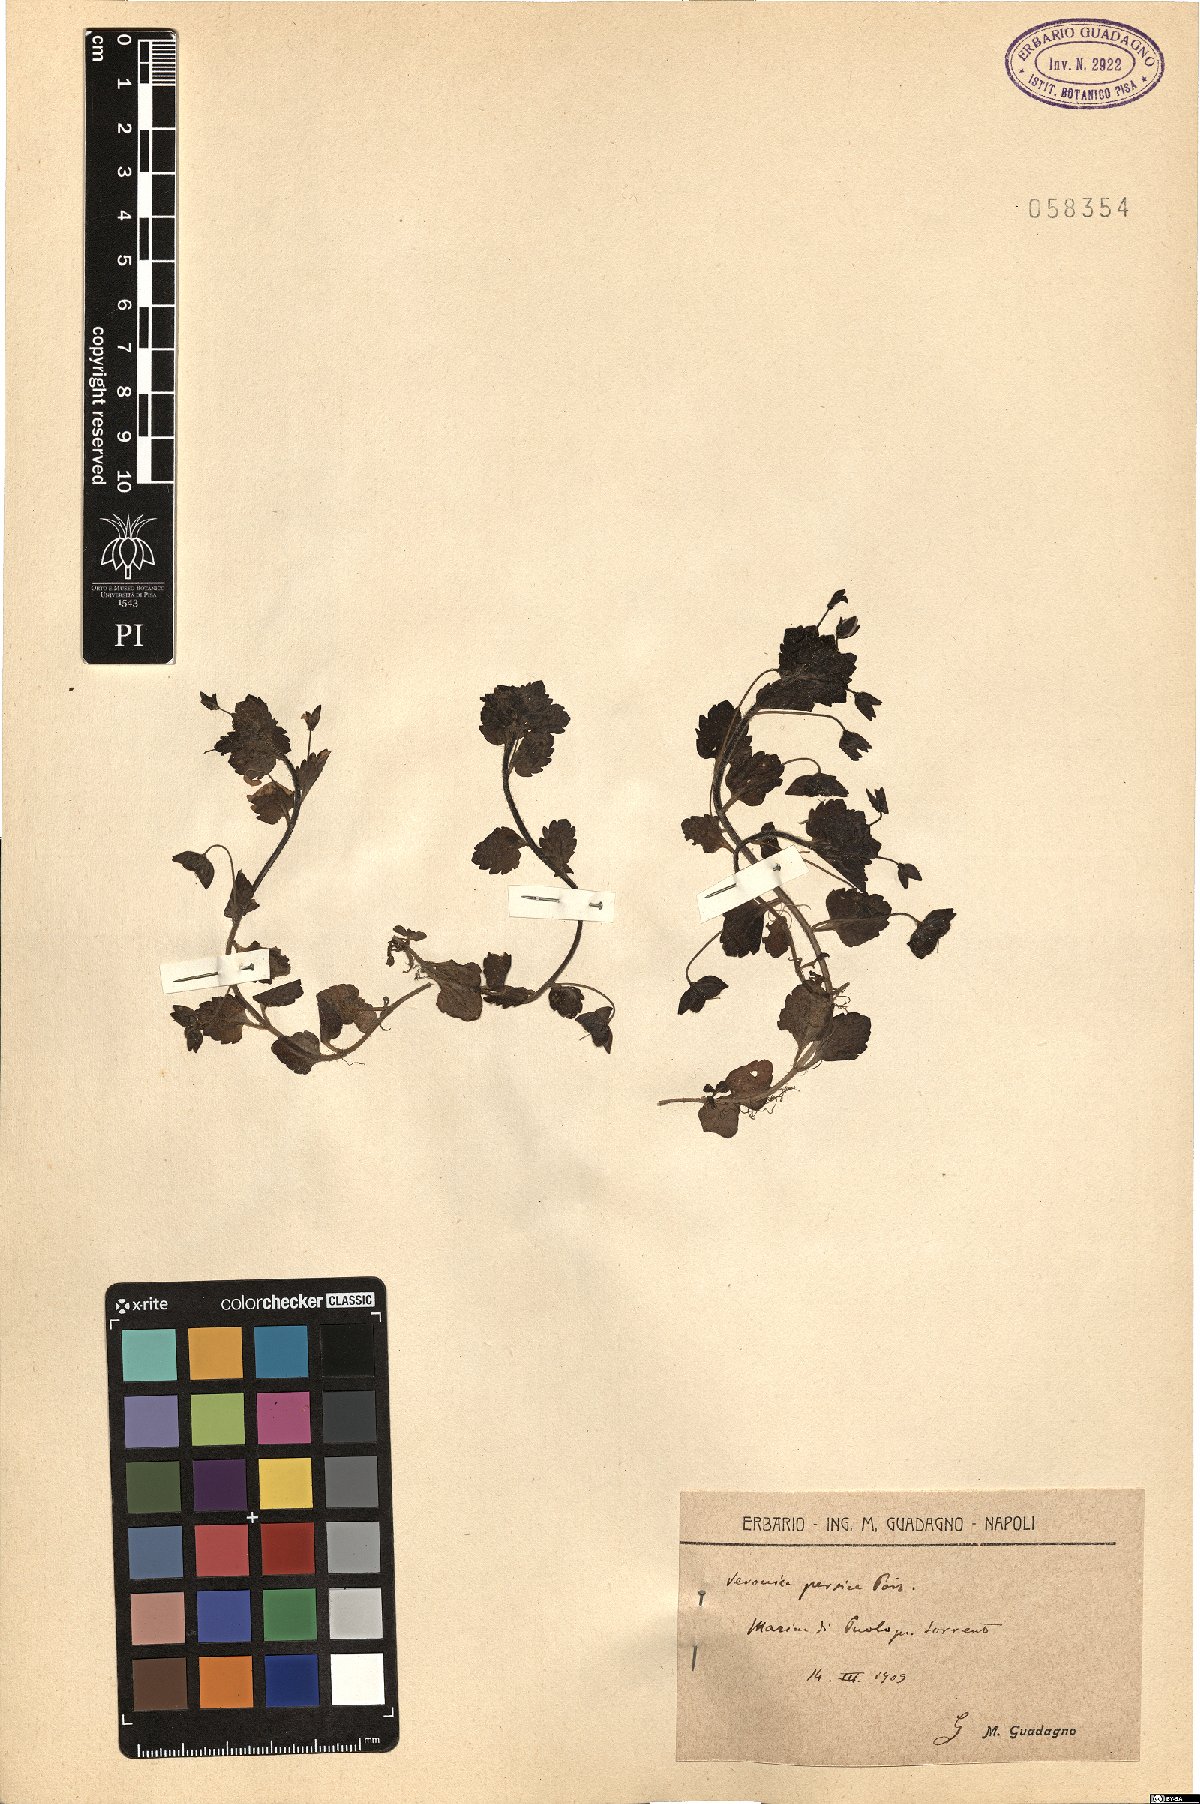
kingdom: Plantae
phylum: Tracheophyta
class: Magnoliopsida
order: Lamiales
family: Plantaginaceae
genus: Veronica
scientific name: Veronica persica
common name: Common field-speedwell
